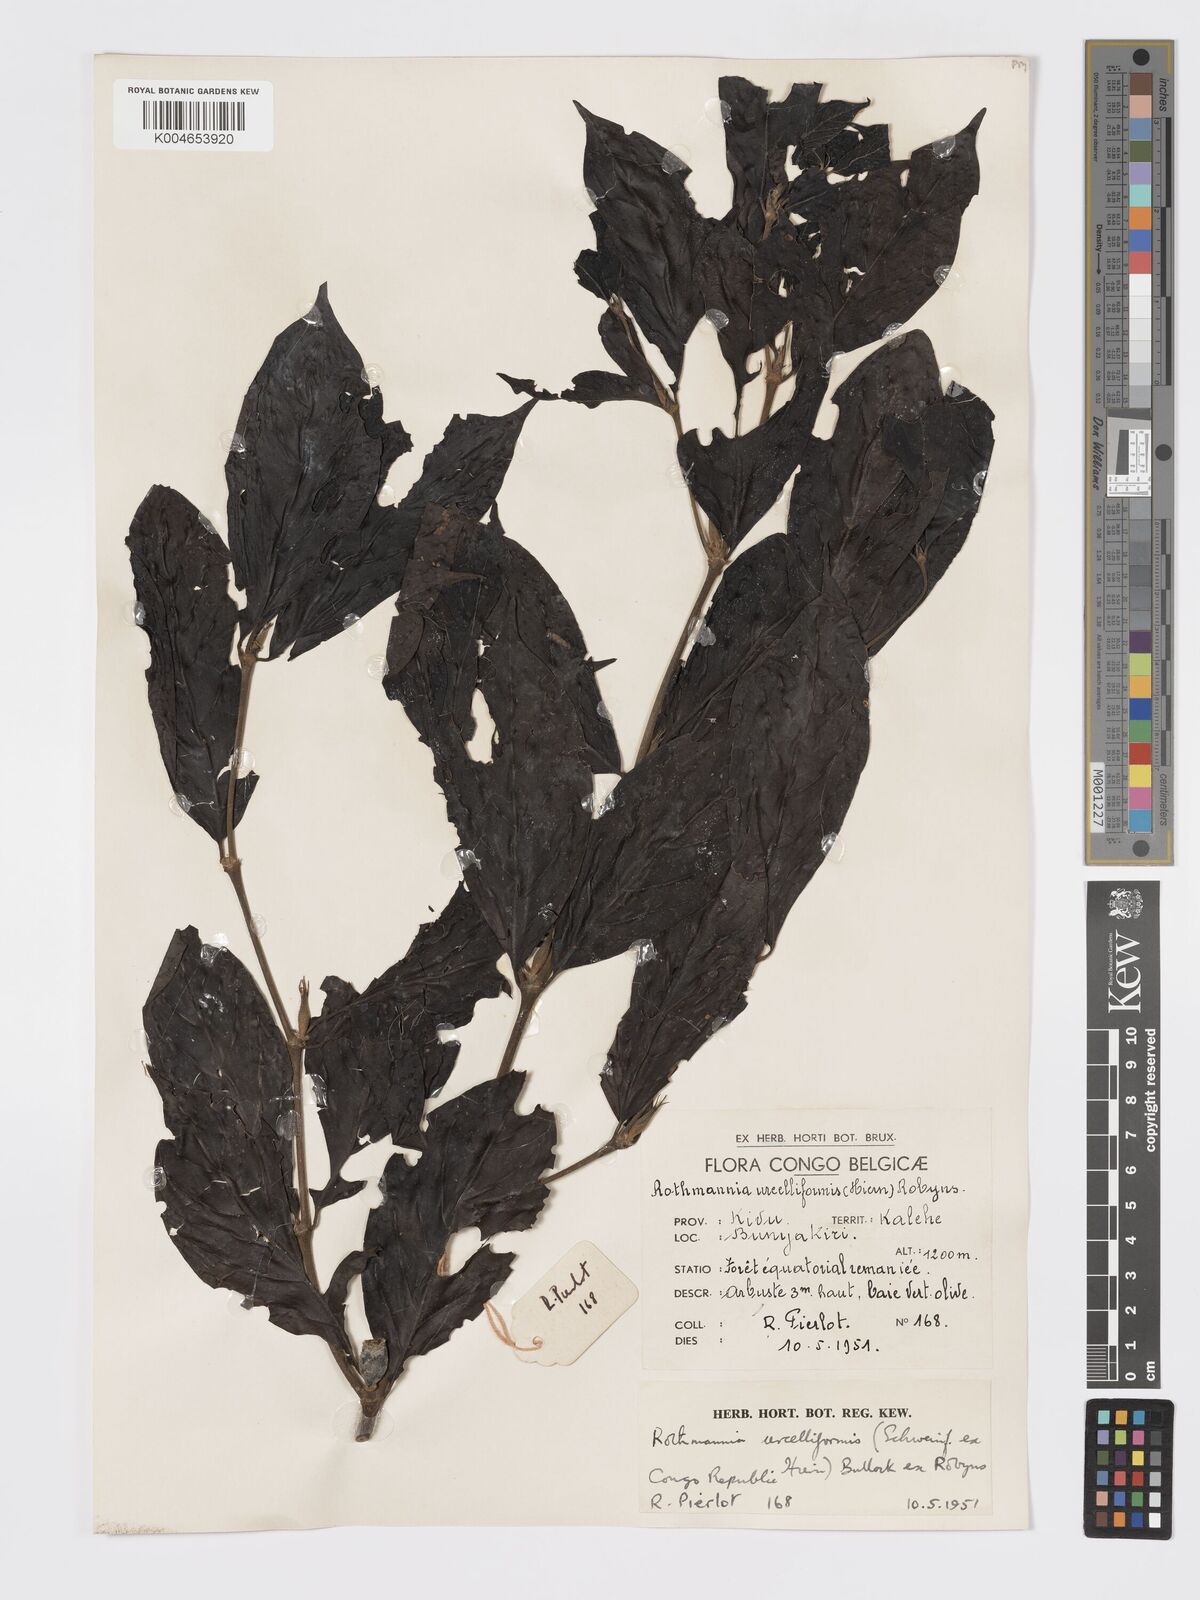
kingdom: Plantae
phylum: Tracheophyta
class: Magnoliopsida
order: Gentianales
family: Rubiaceae
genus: Rothmannia
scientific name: Rothmannia urcelliformis
